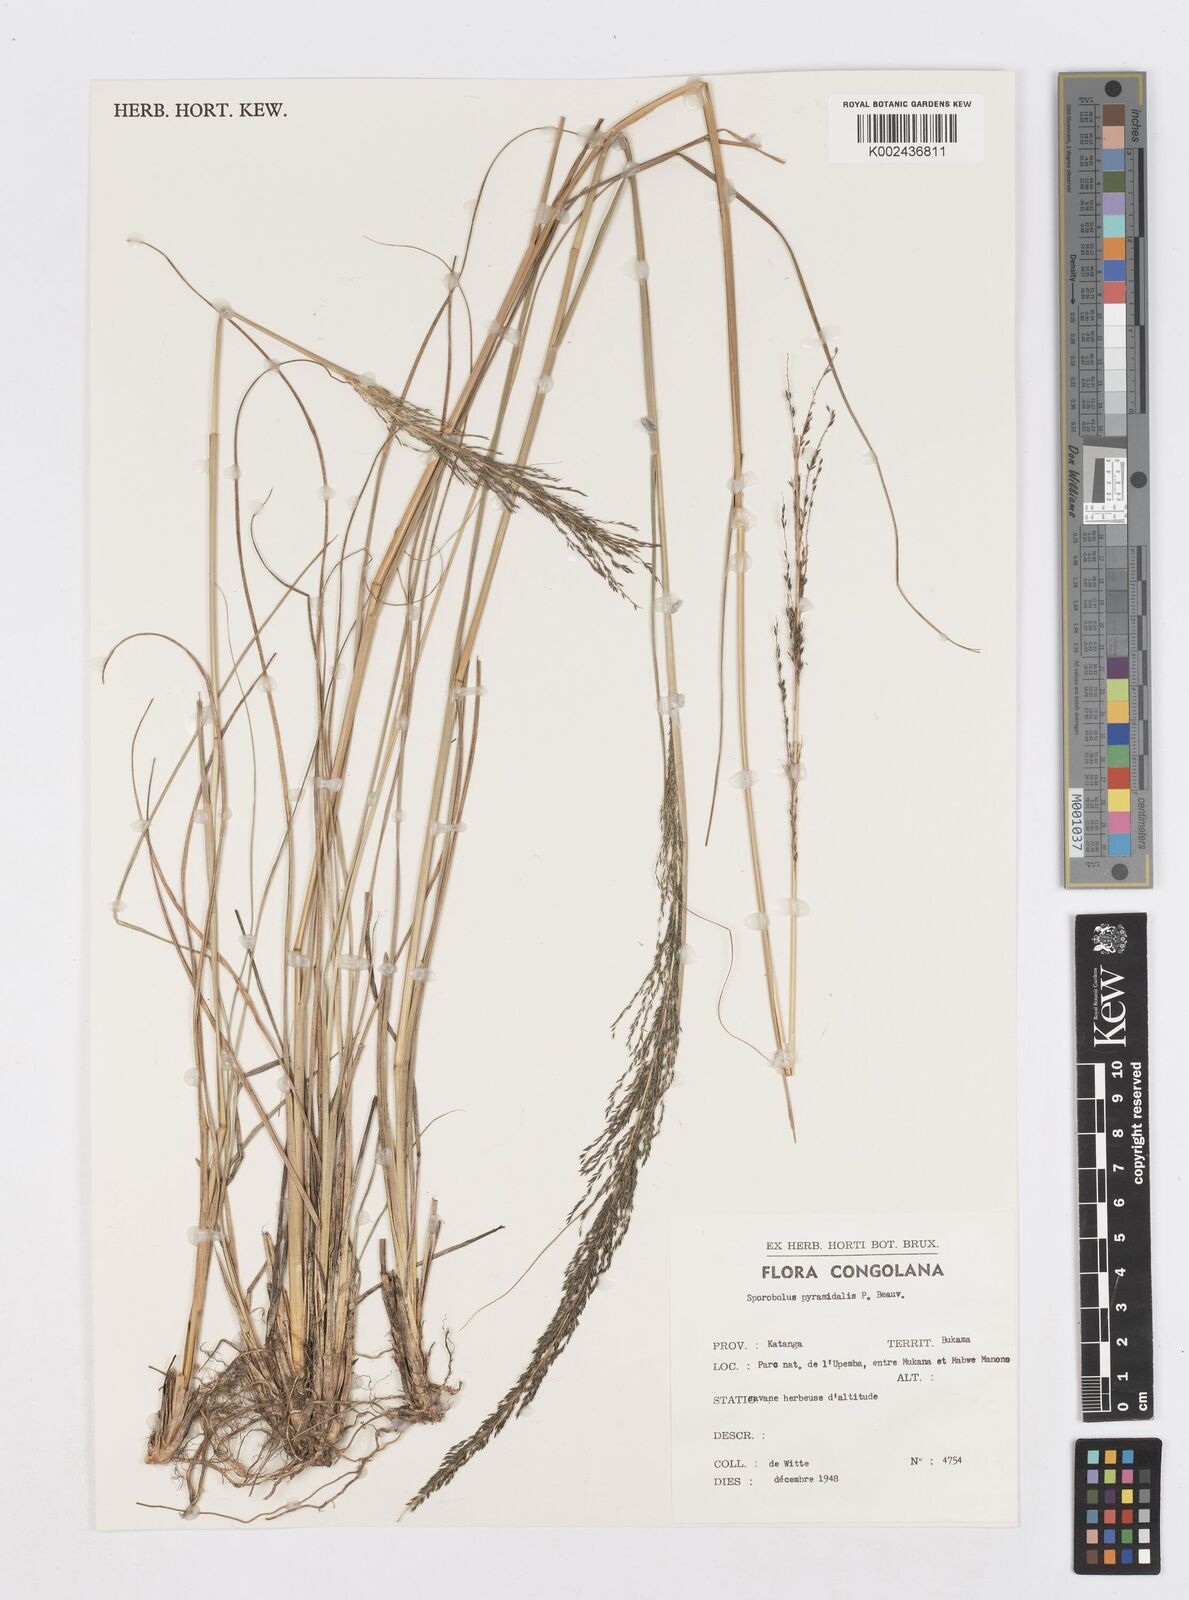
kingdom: Plantae
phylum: Tracheophyta
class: Liliopsida
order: Poales
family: Poaceae
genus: Sporobolus
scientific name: Sporobolus pyramidalis
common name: West indian dropseed
